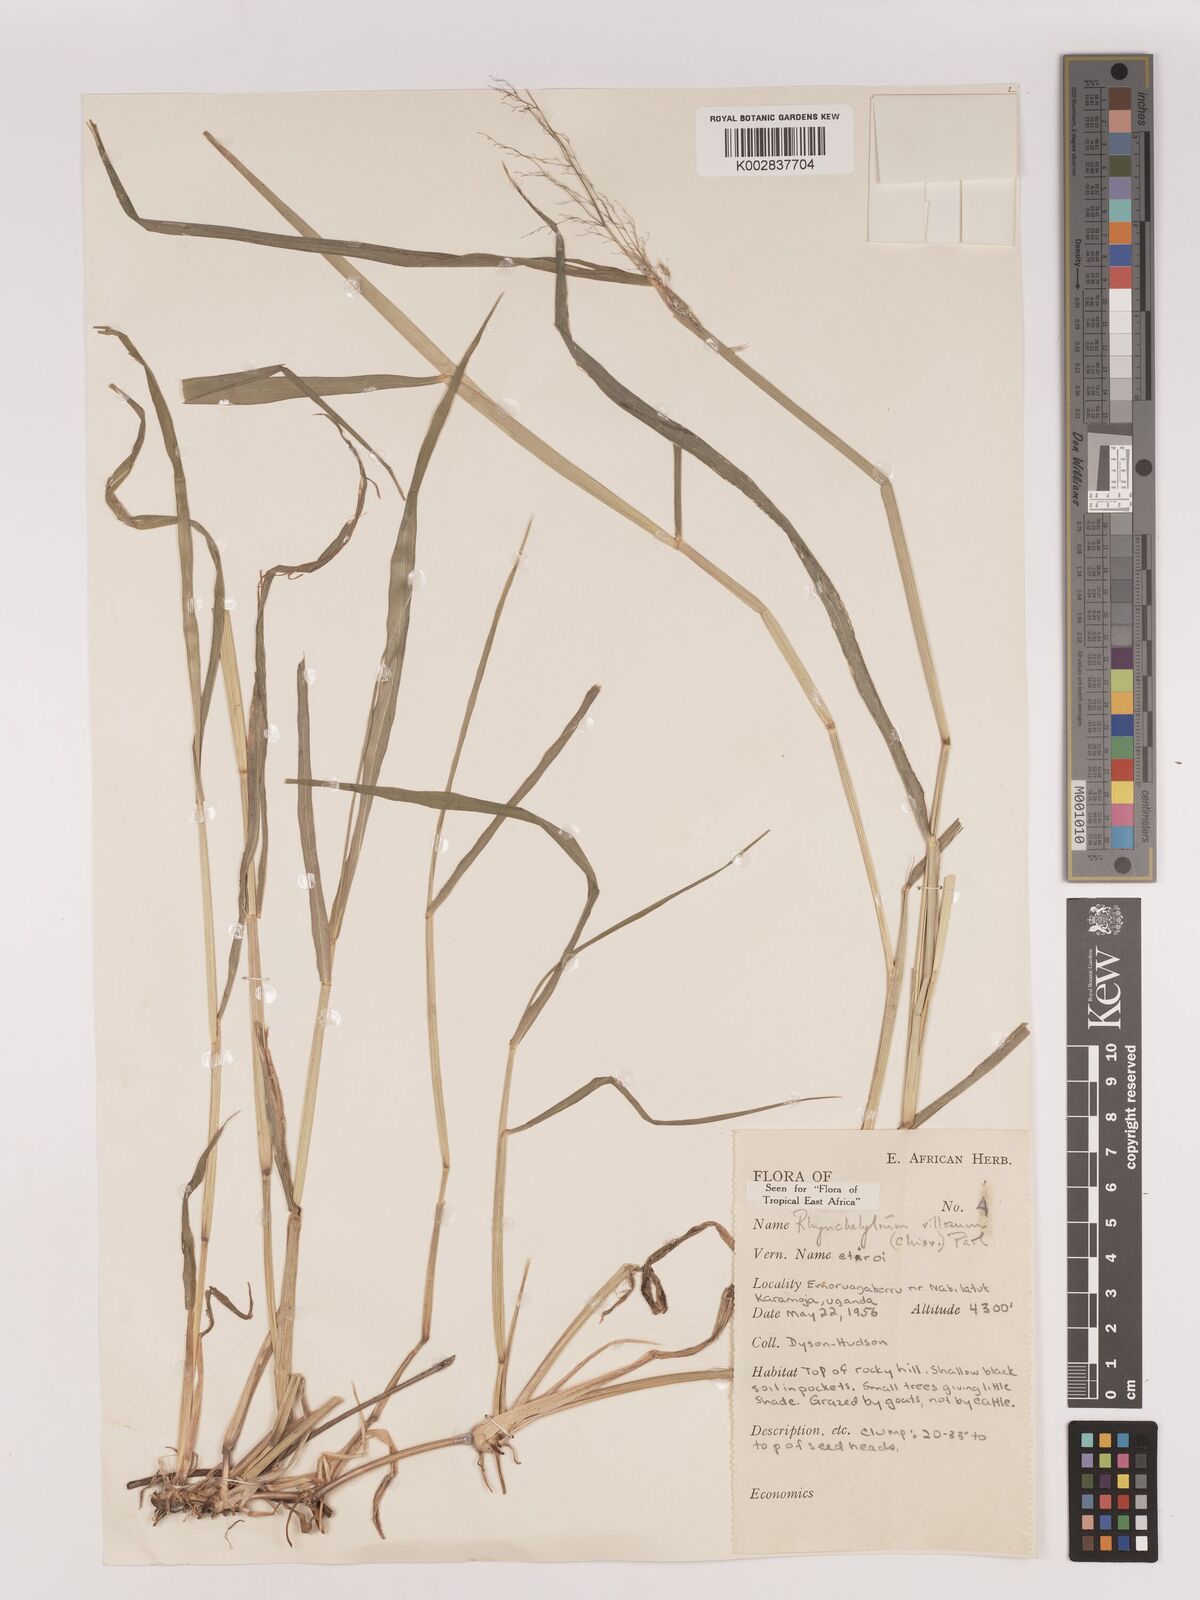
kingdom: Plantae
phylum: Tracheophyta
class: Liliopsida
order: Poales
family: Poaceae
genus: Melinis
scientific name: Melinis repens
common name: Rose natal grass
